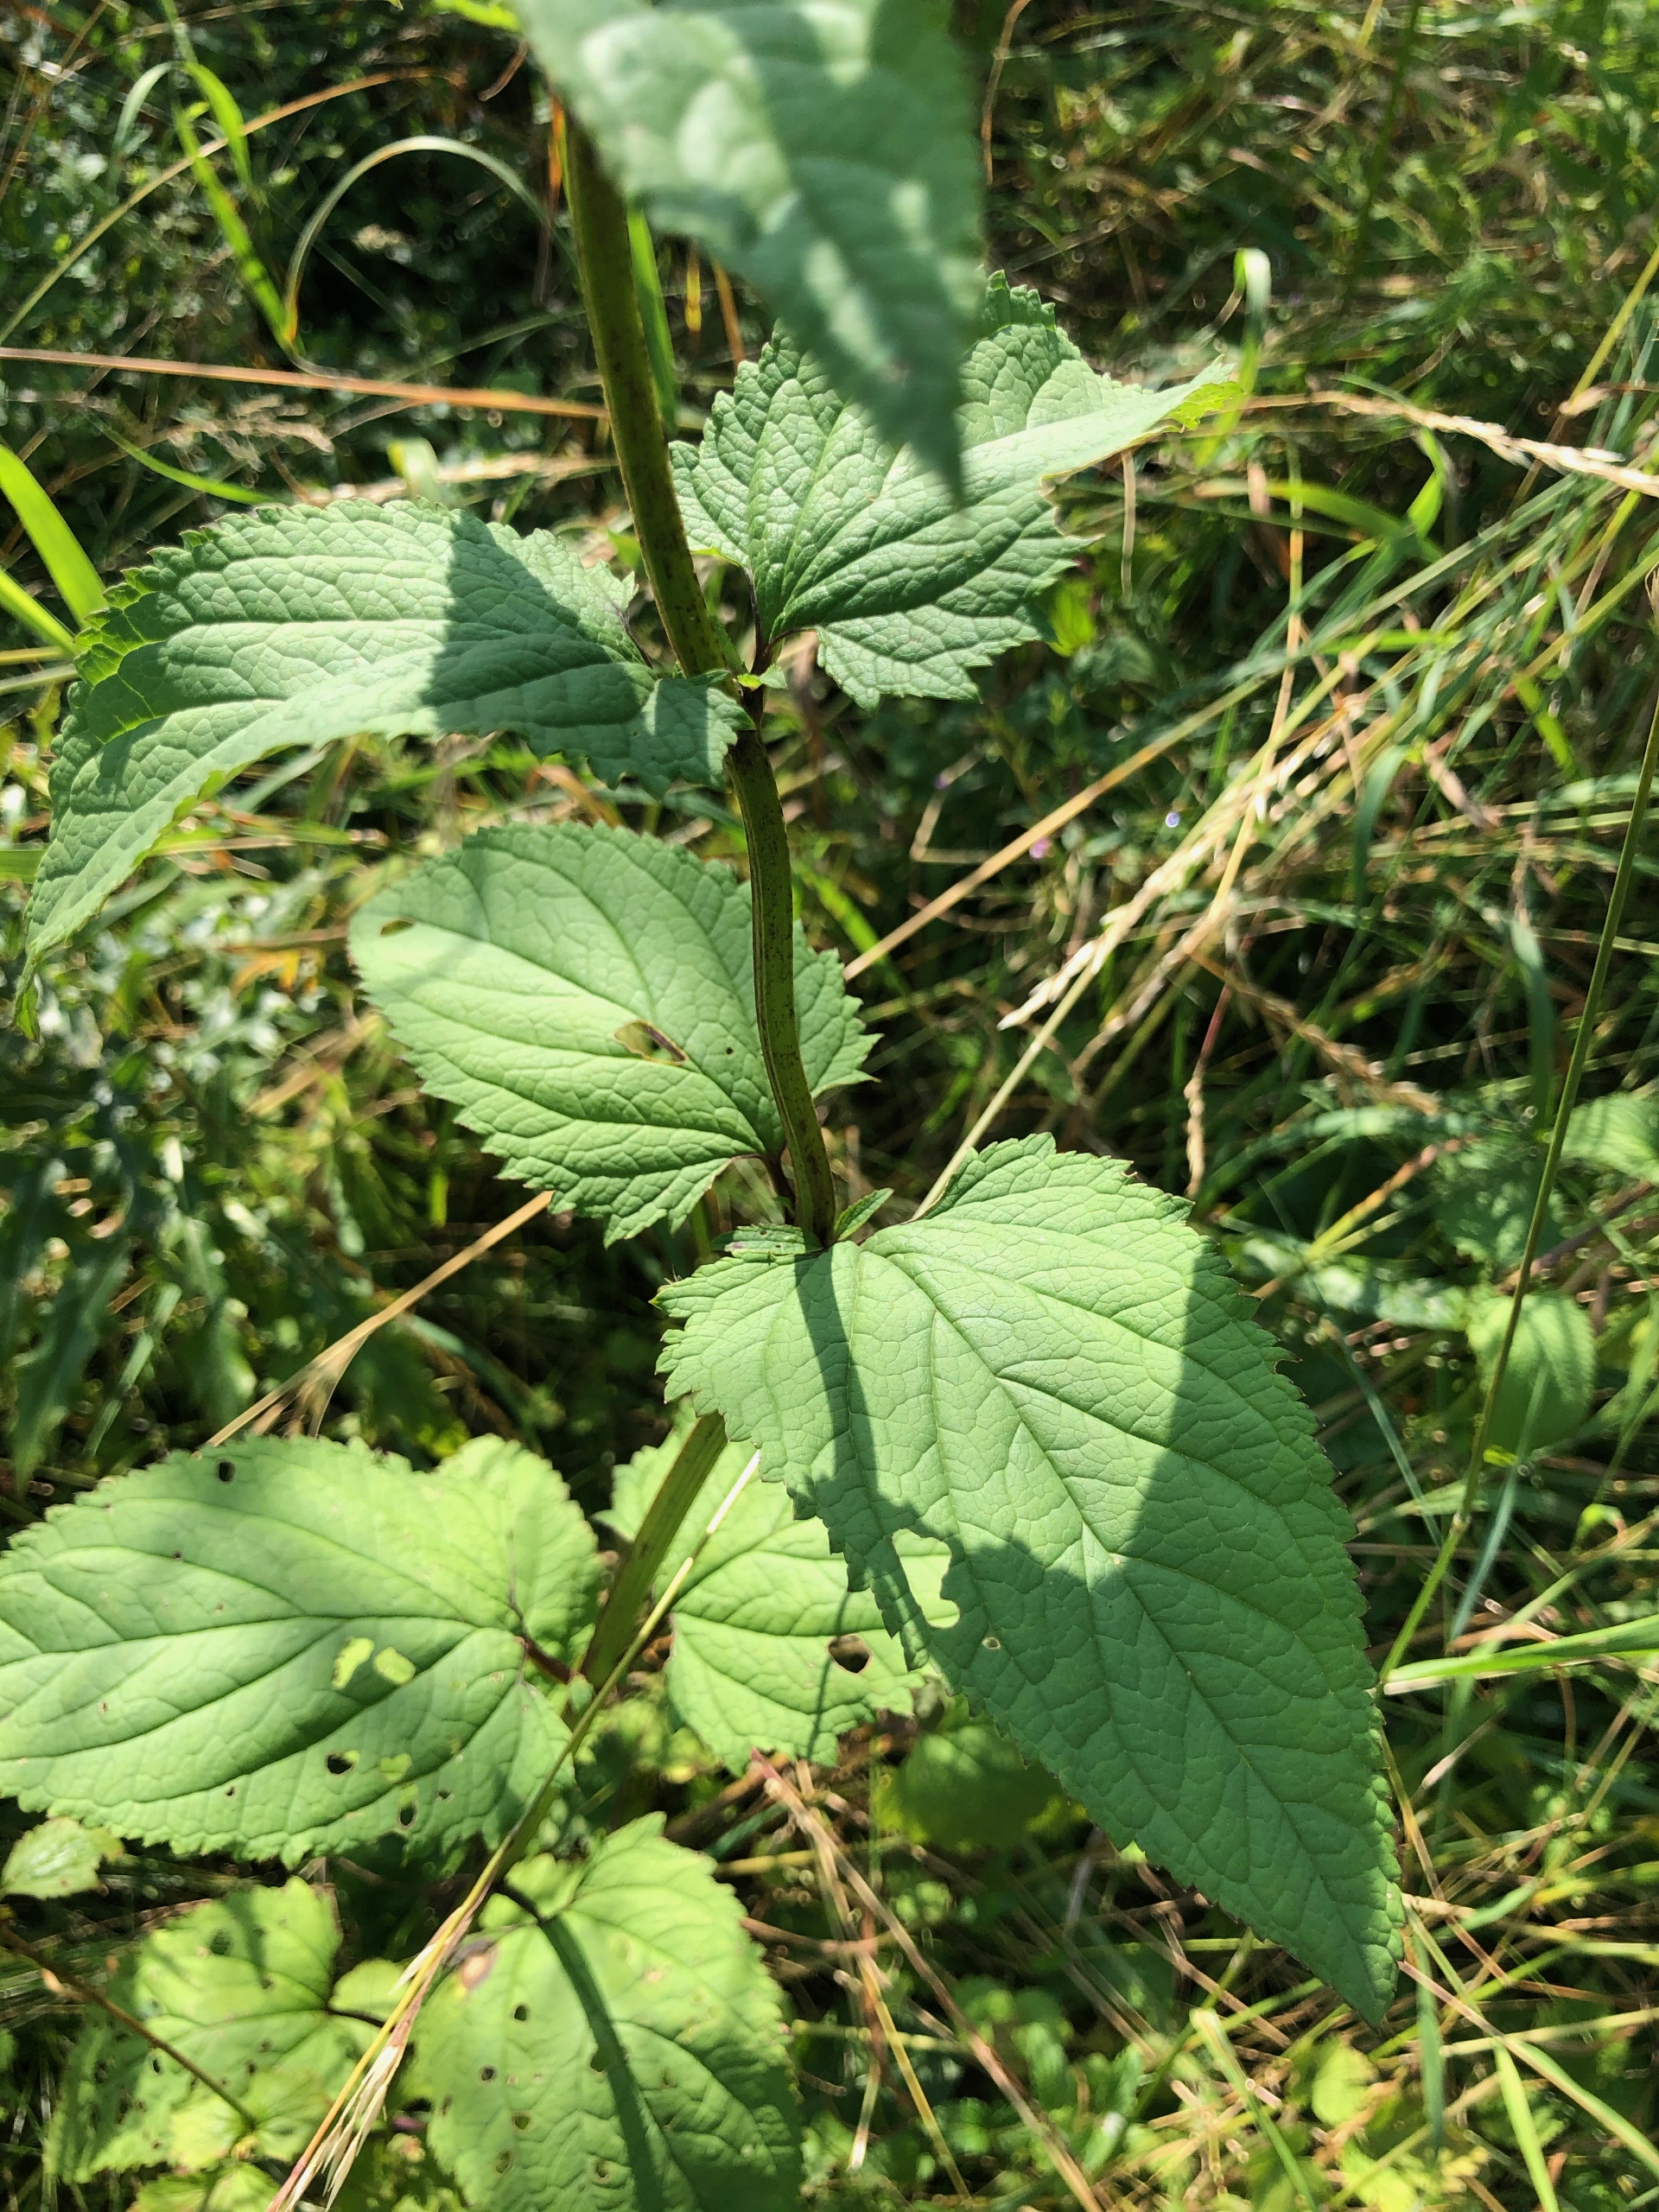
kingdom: Plantae
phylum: Tracheophyta
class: Magnoliopsida
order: Lamiales
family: Scrophulariaceae
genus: Scrophularia
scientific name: Scrophularia nodosa
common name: Knoldet brunrod
